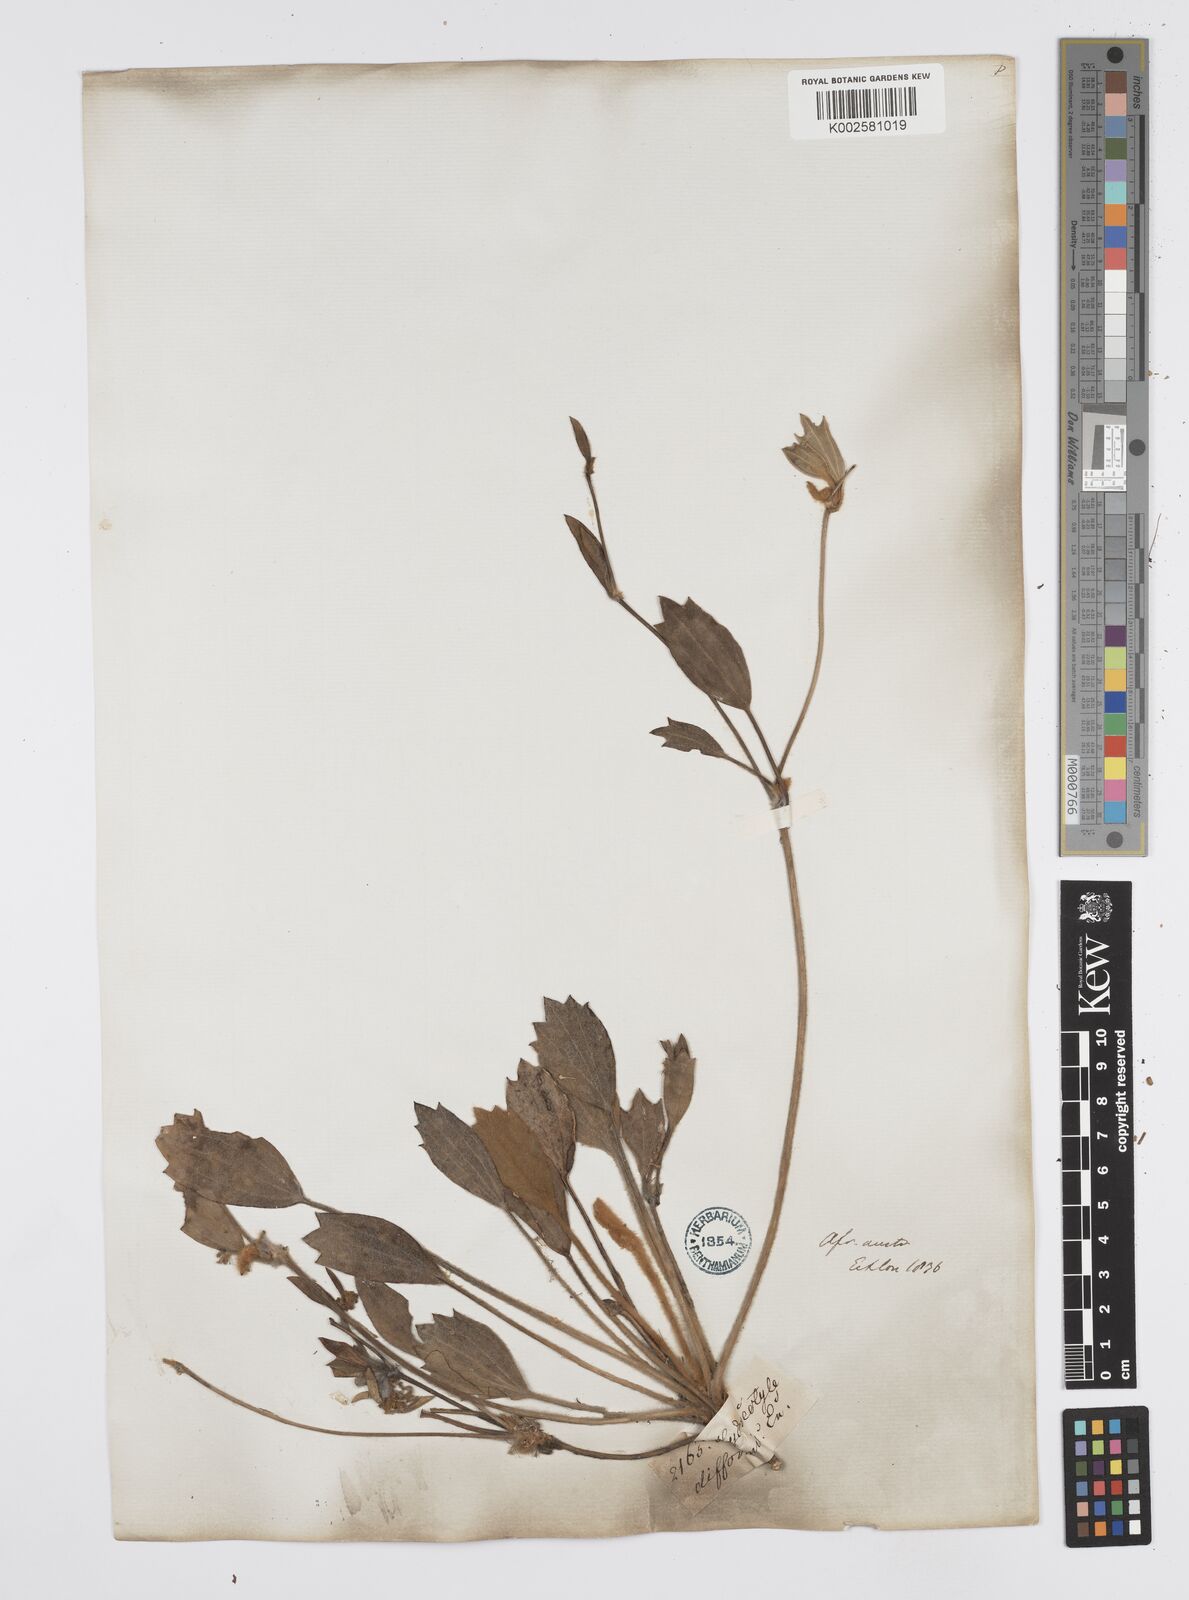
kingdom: Plantae
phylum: Tracheophyta
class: Magnoliopsida
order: Apiales
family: Apiaceae
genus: Centella
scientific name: Centella difformis
